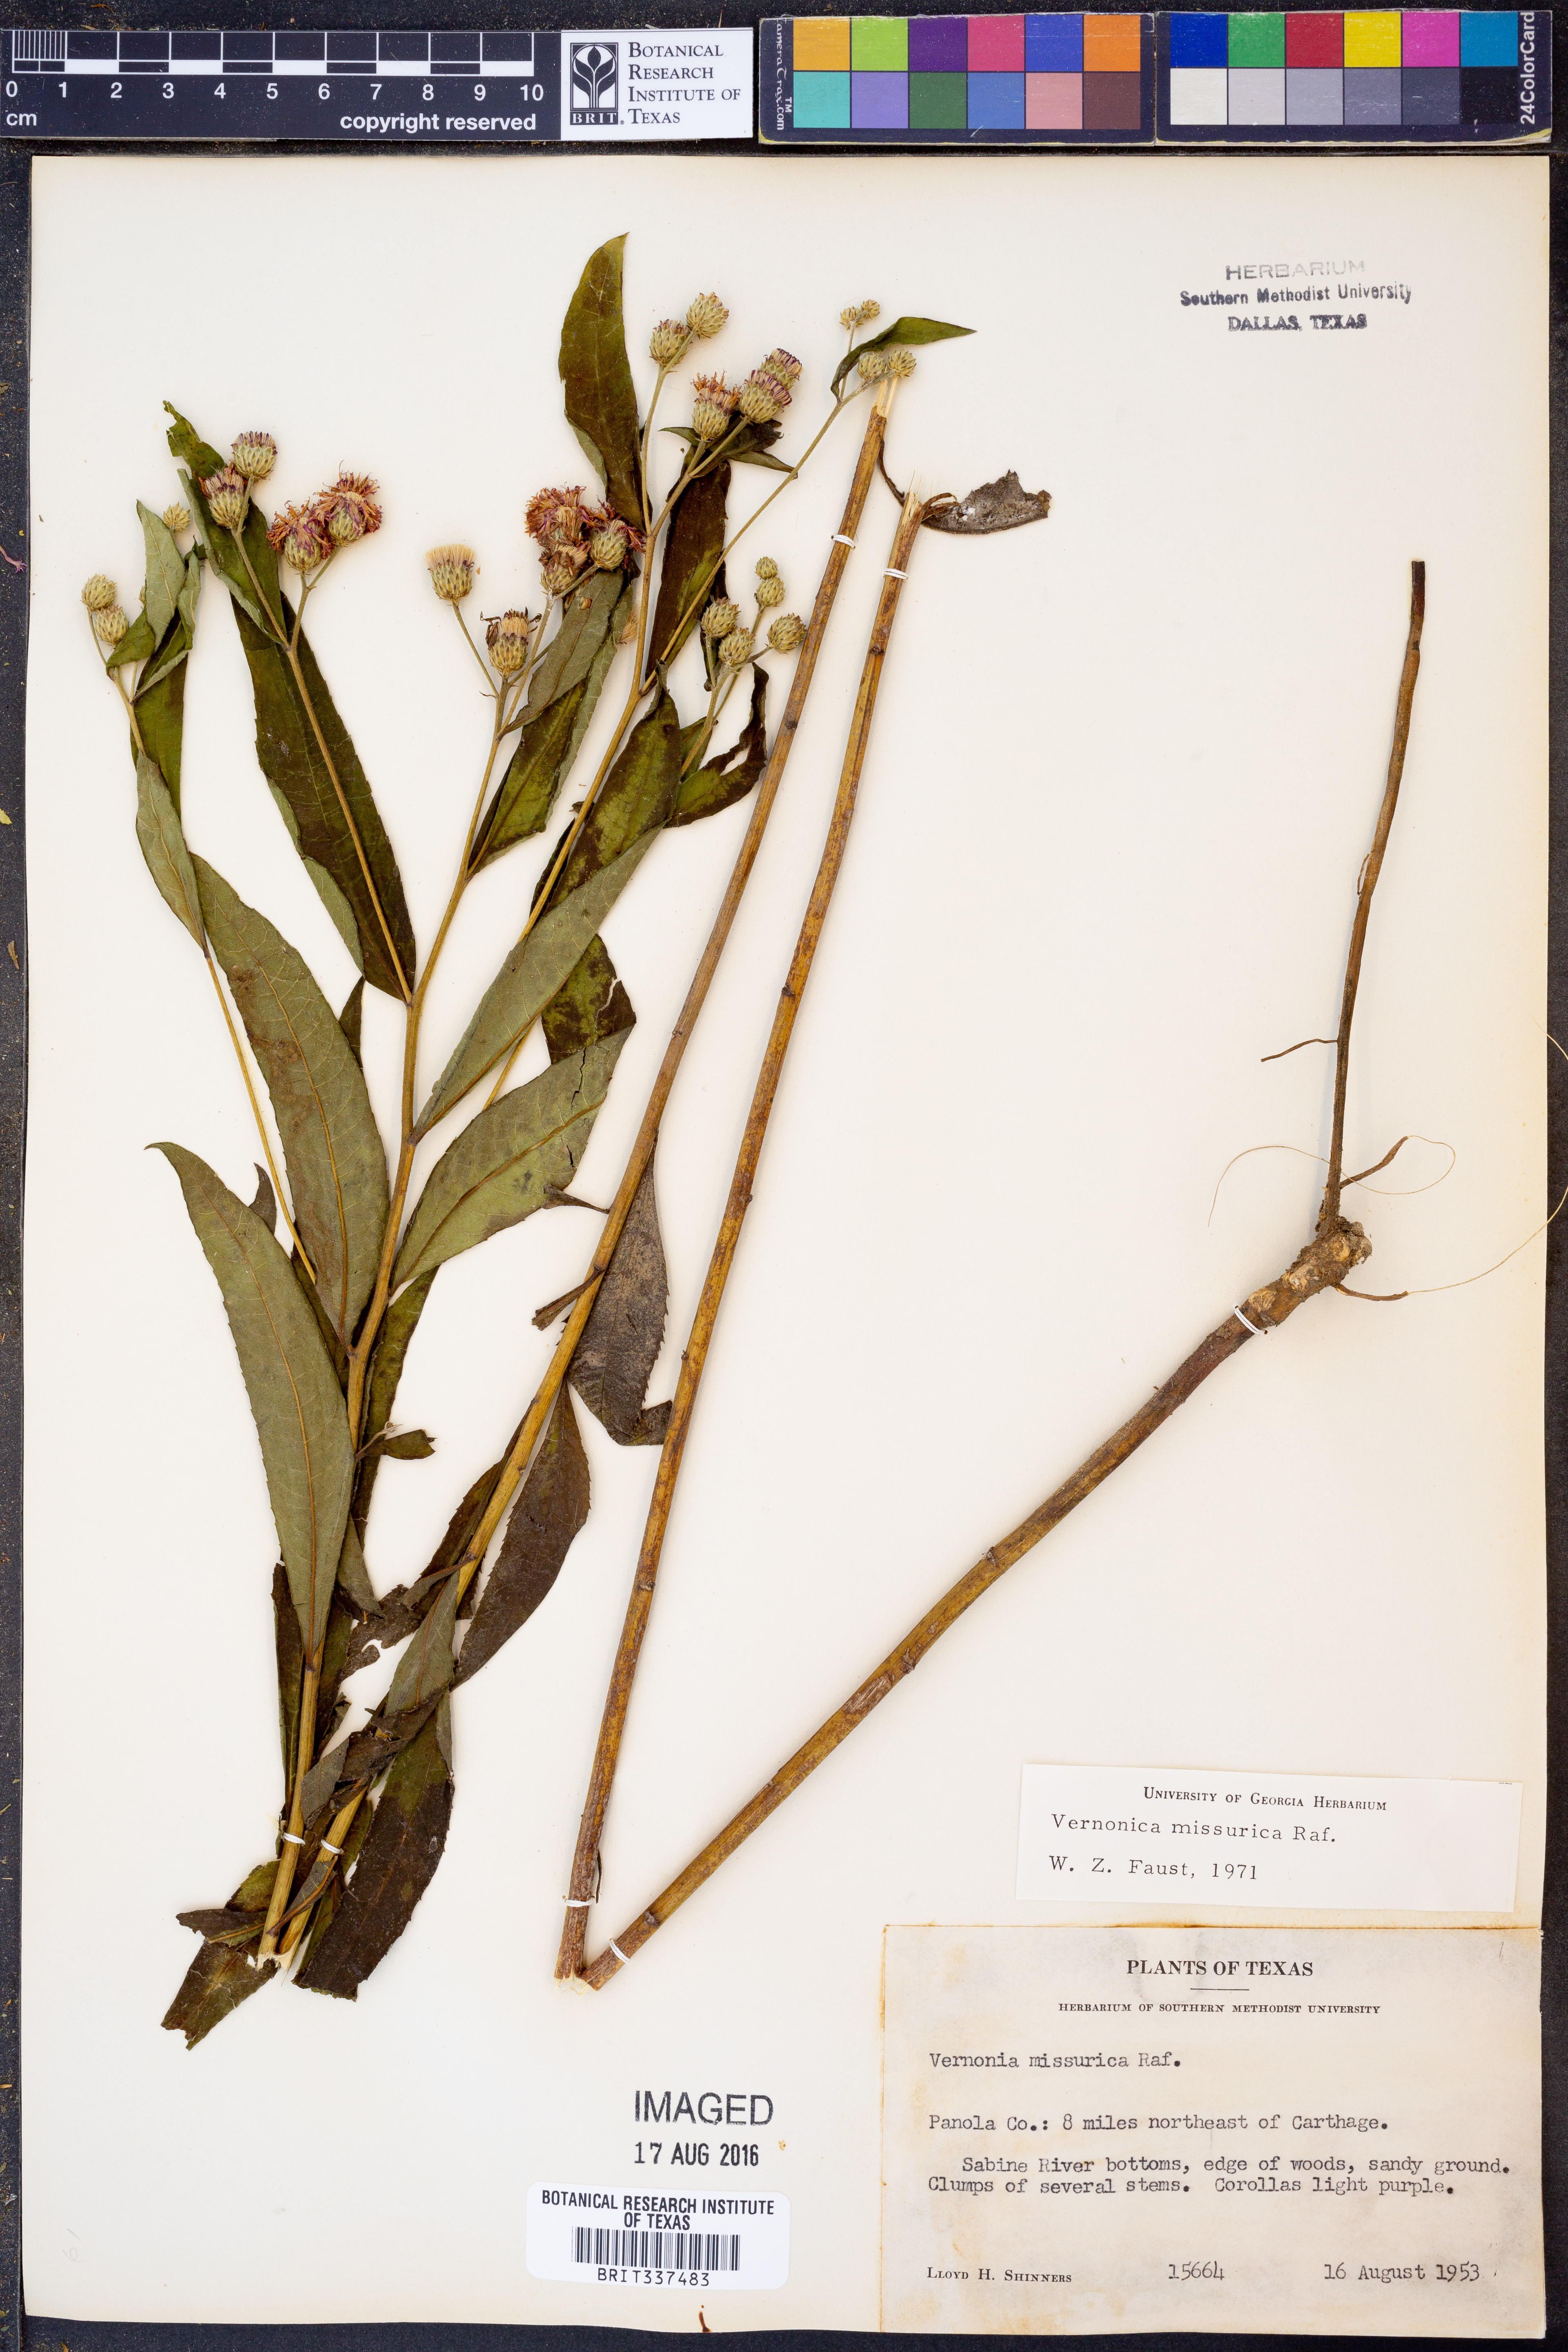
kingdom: Plantae
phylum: Tracheophyta
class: Magnoliopsida
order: Asterales
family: Asteraceae
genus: Vernonia
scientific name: Vernonia missurica
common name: Missouri ironweed
